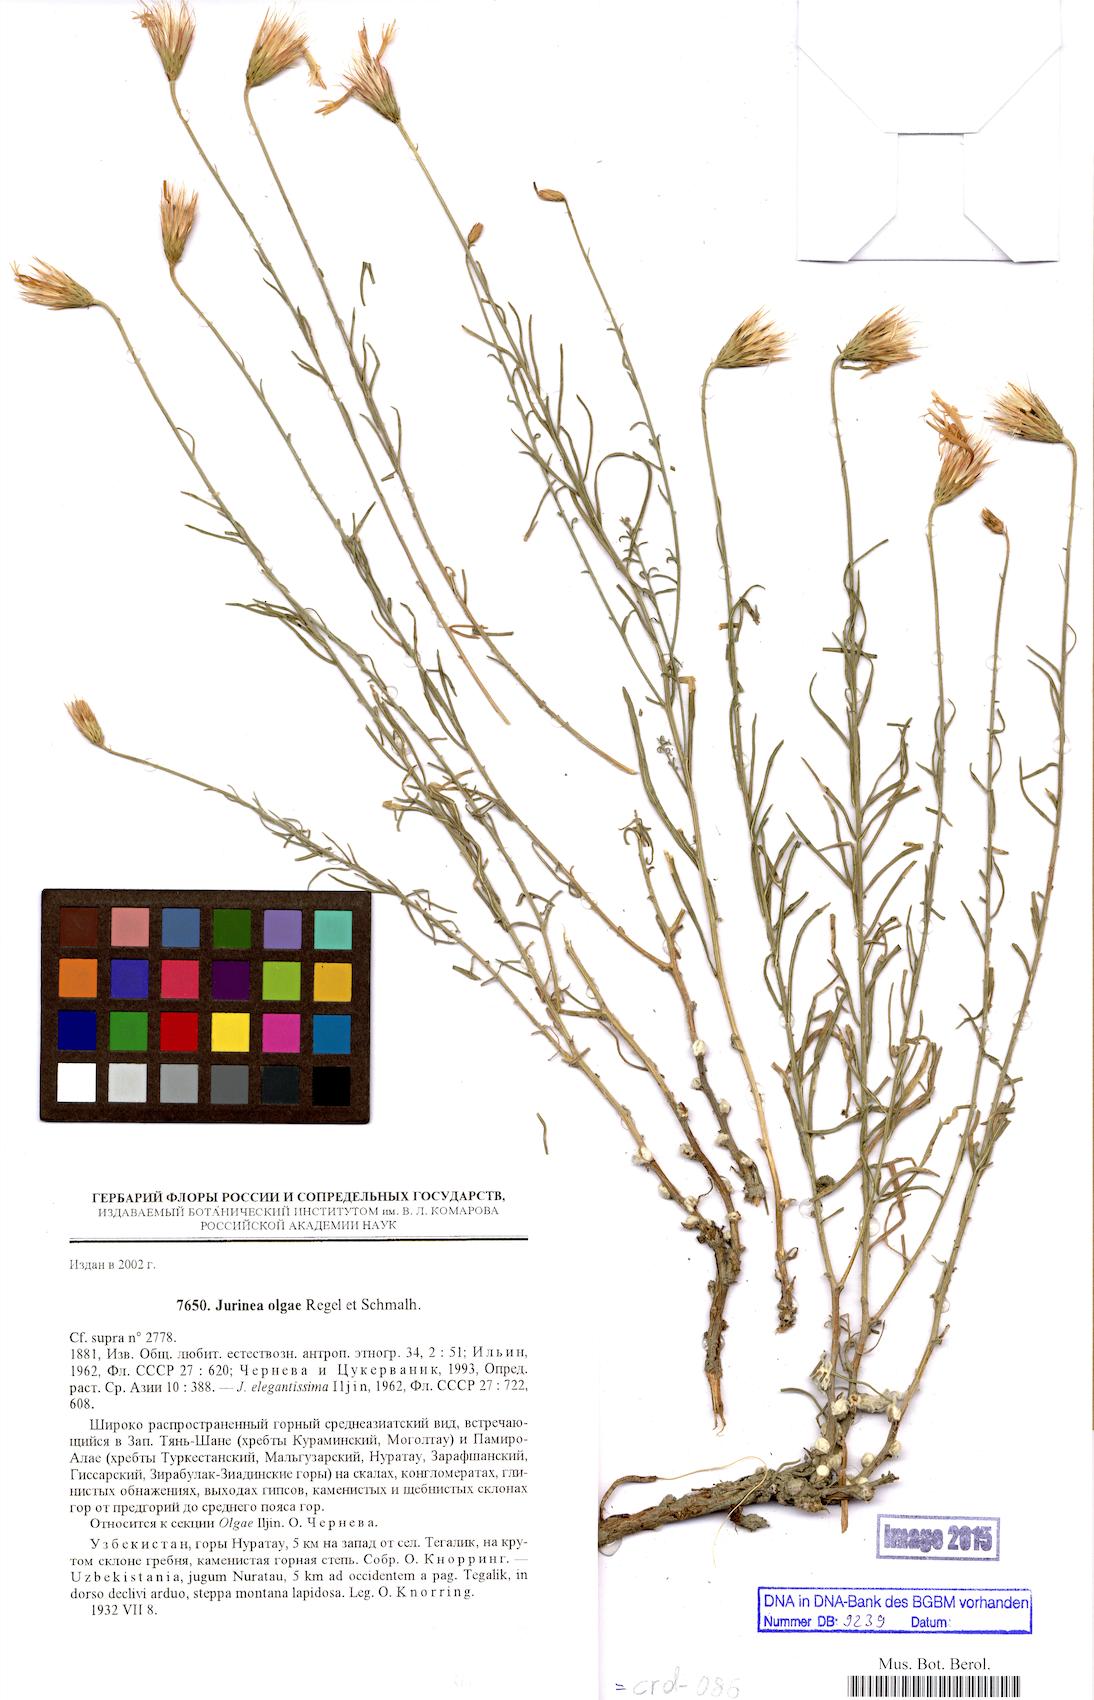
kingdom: Plantae
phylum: Tracheophyta
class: Magnoliopsida
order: Asterales
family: Asteraceae
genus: Jurinea
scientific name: Jurinea olgae
